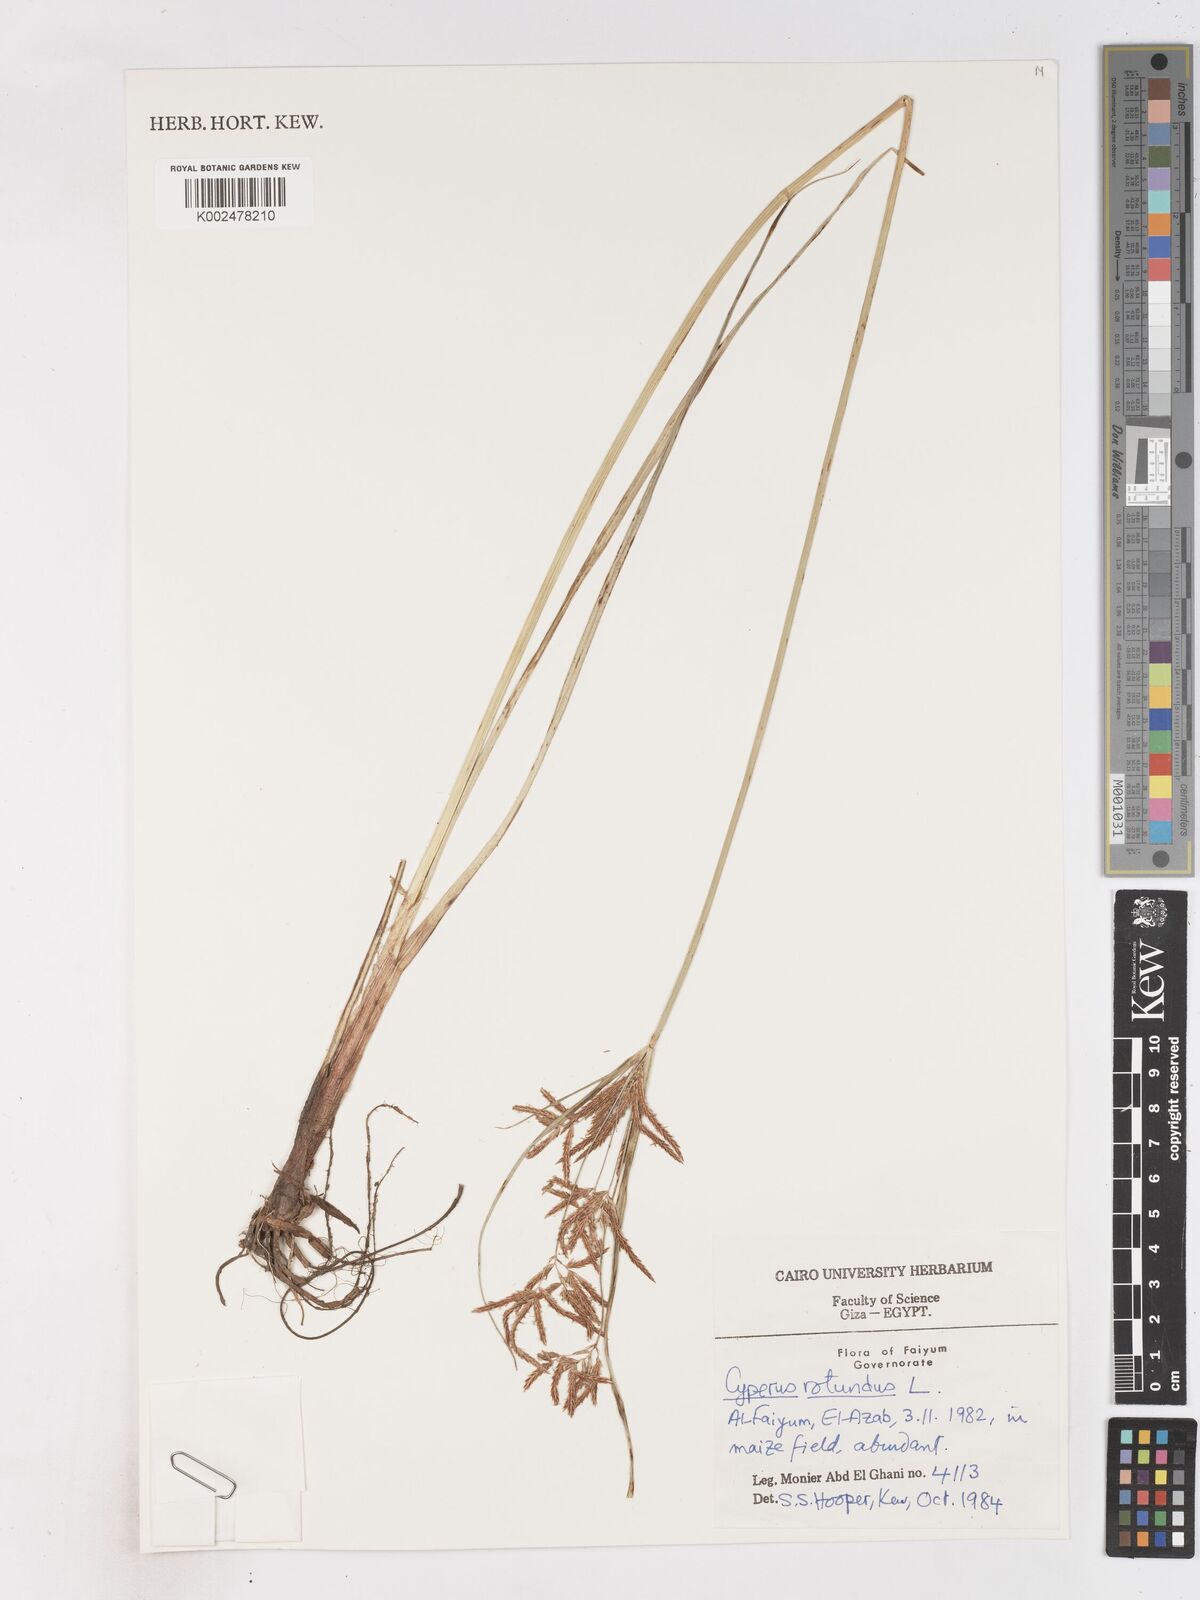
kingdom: Plantae
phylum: Tracheophyta
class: Liliopsida
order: Poales
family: Cyperaceae
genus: Cyperus
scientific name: Cyperus rotundus
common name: Nutgrass
